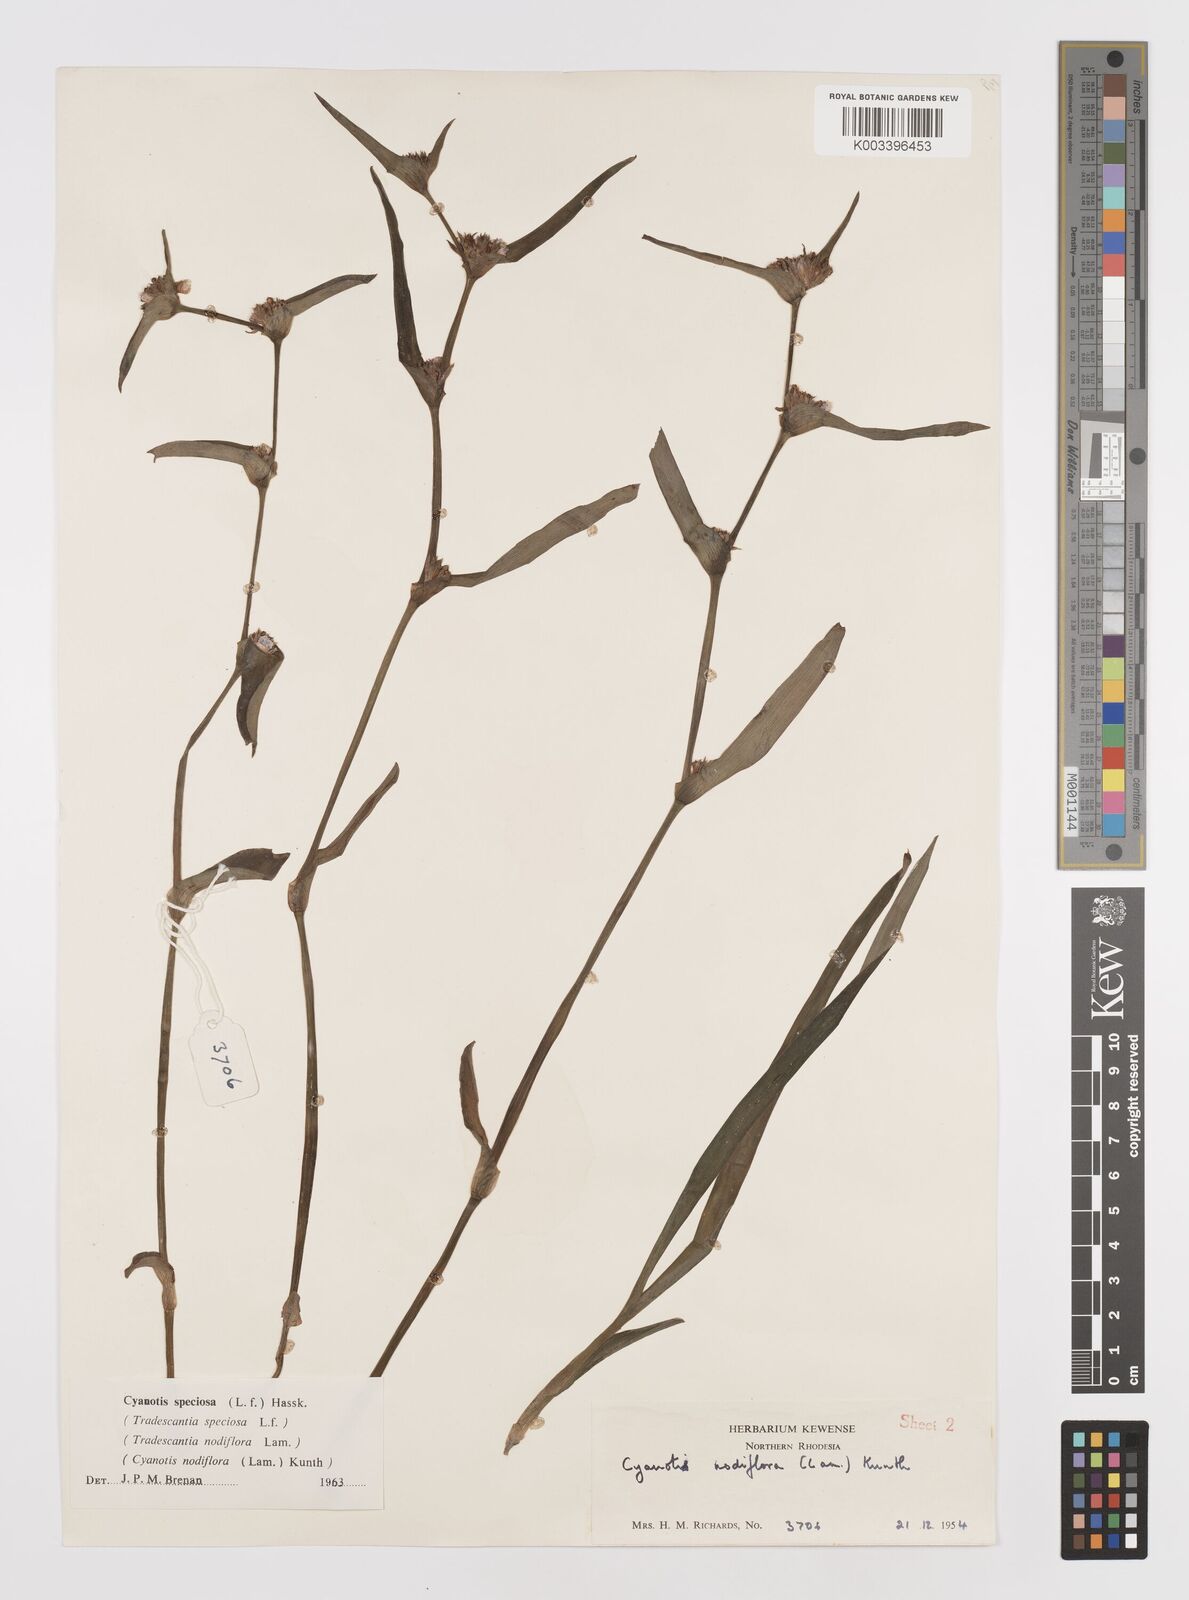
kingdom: Plantae
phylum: Tracheophyta
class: Liliopsida
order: Commelinales
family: Commelinaceae
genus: Cyanotis
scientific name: Cyanotis speciosa
